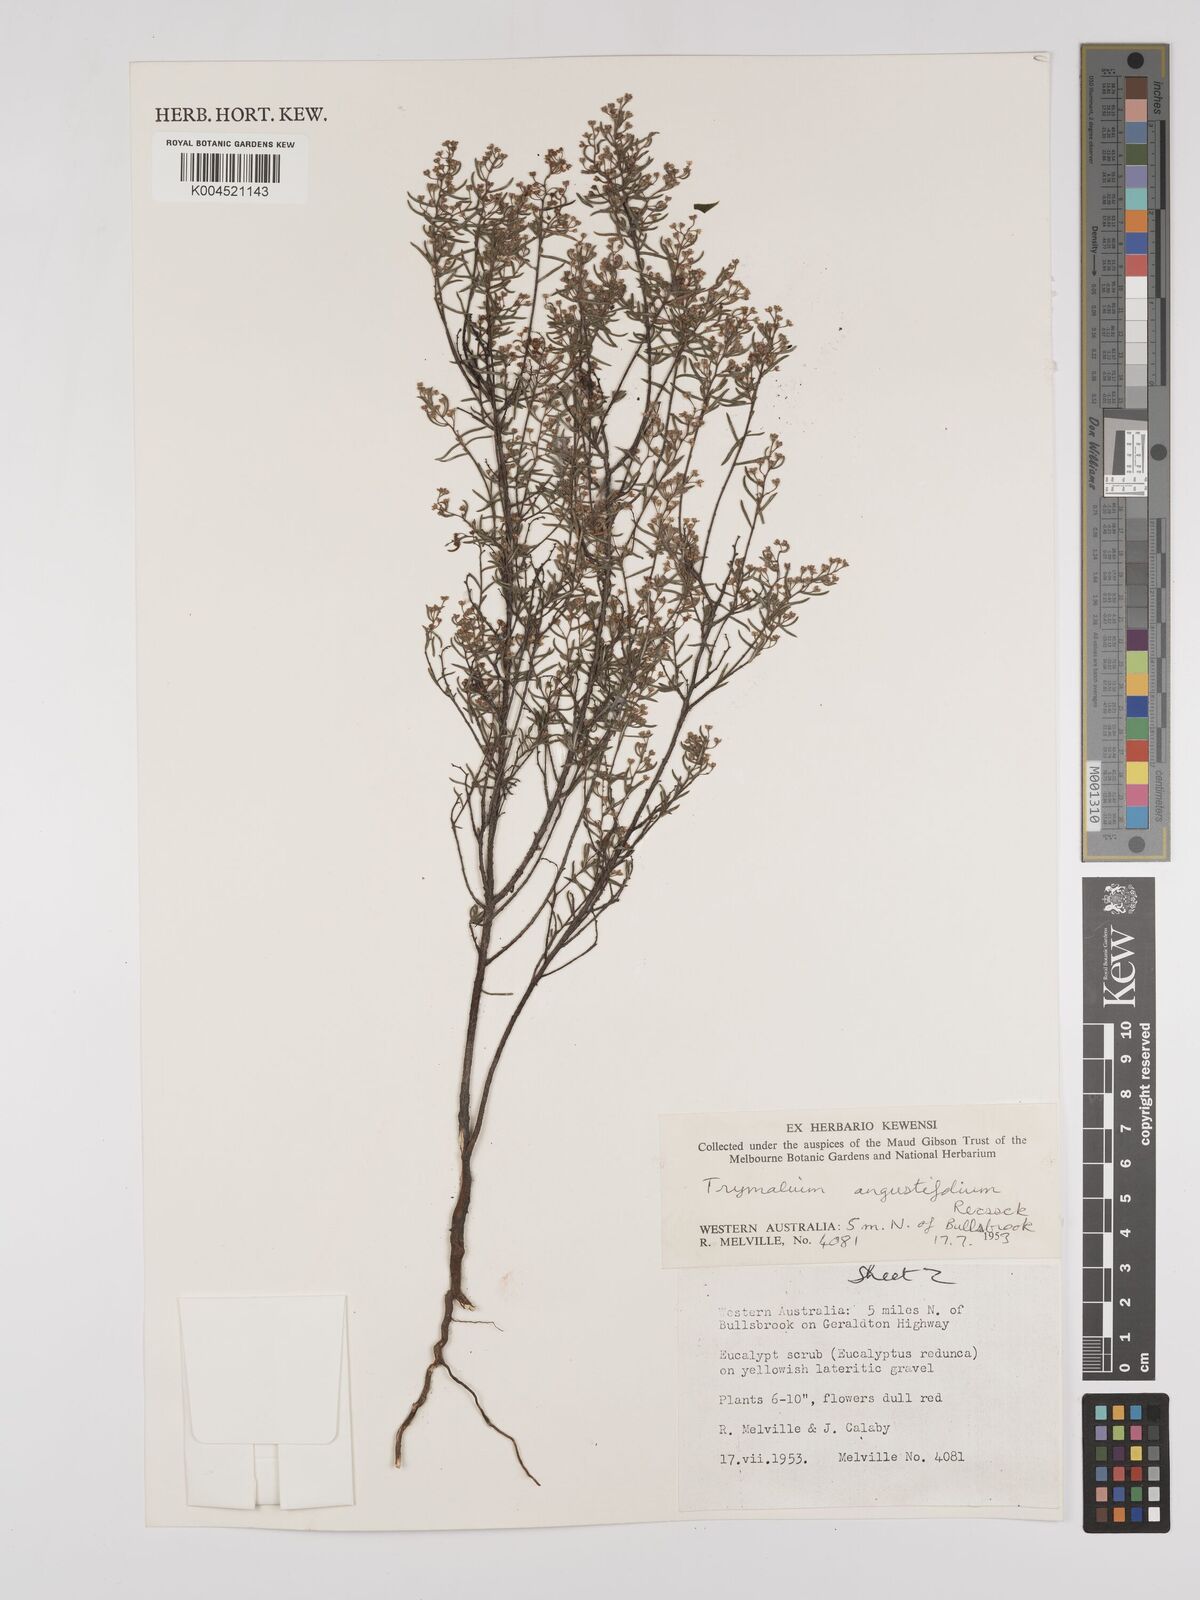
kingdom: Plantae
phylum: Tracheophyta
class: Magnoliopsida
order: Rosales
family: Rhamnaceae
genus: Trymalium
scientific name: Trymalium angustifolium
